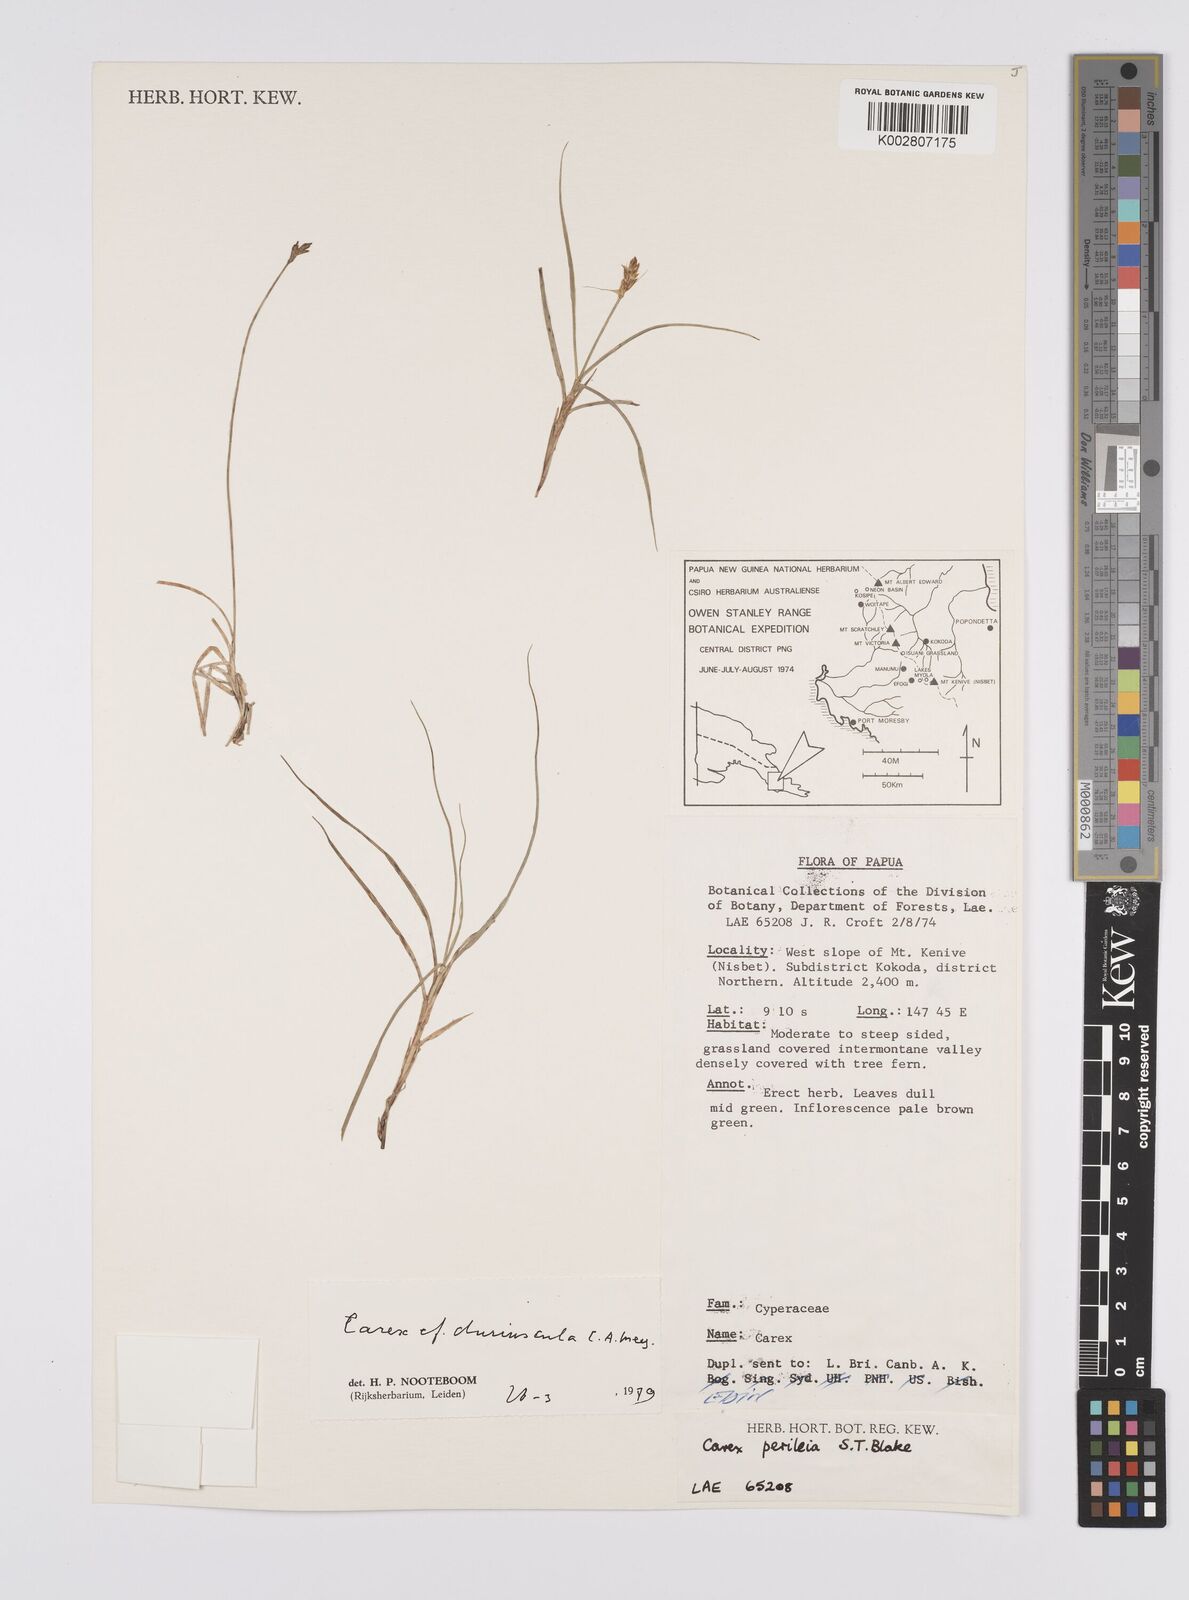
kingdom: Plantae
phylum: Tracheophyta
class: Liliopsida
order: Poales
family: Cyperaceae
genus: Carex
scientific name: Carex duriuscula
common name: Involute-leaved sedge
